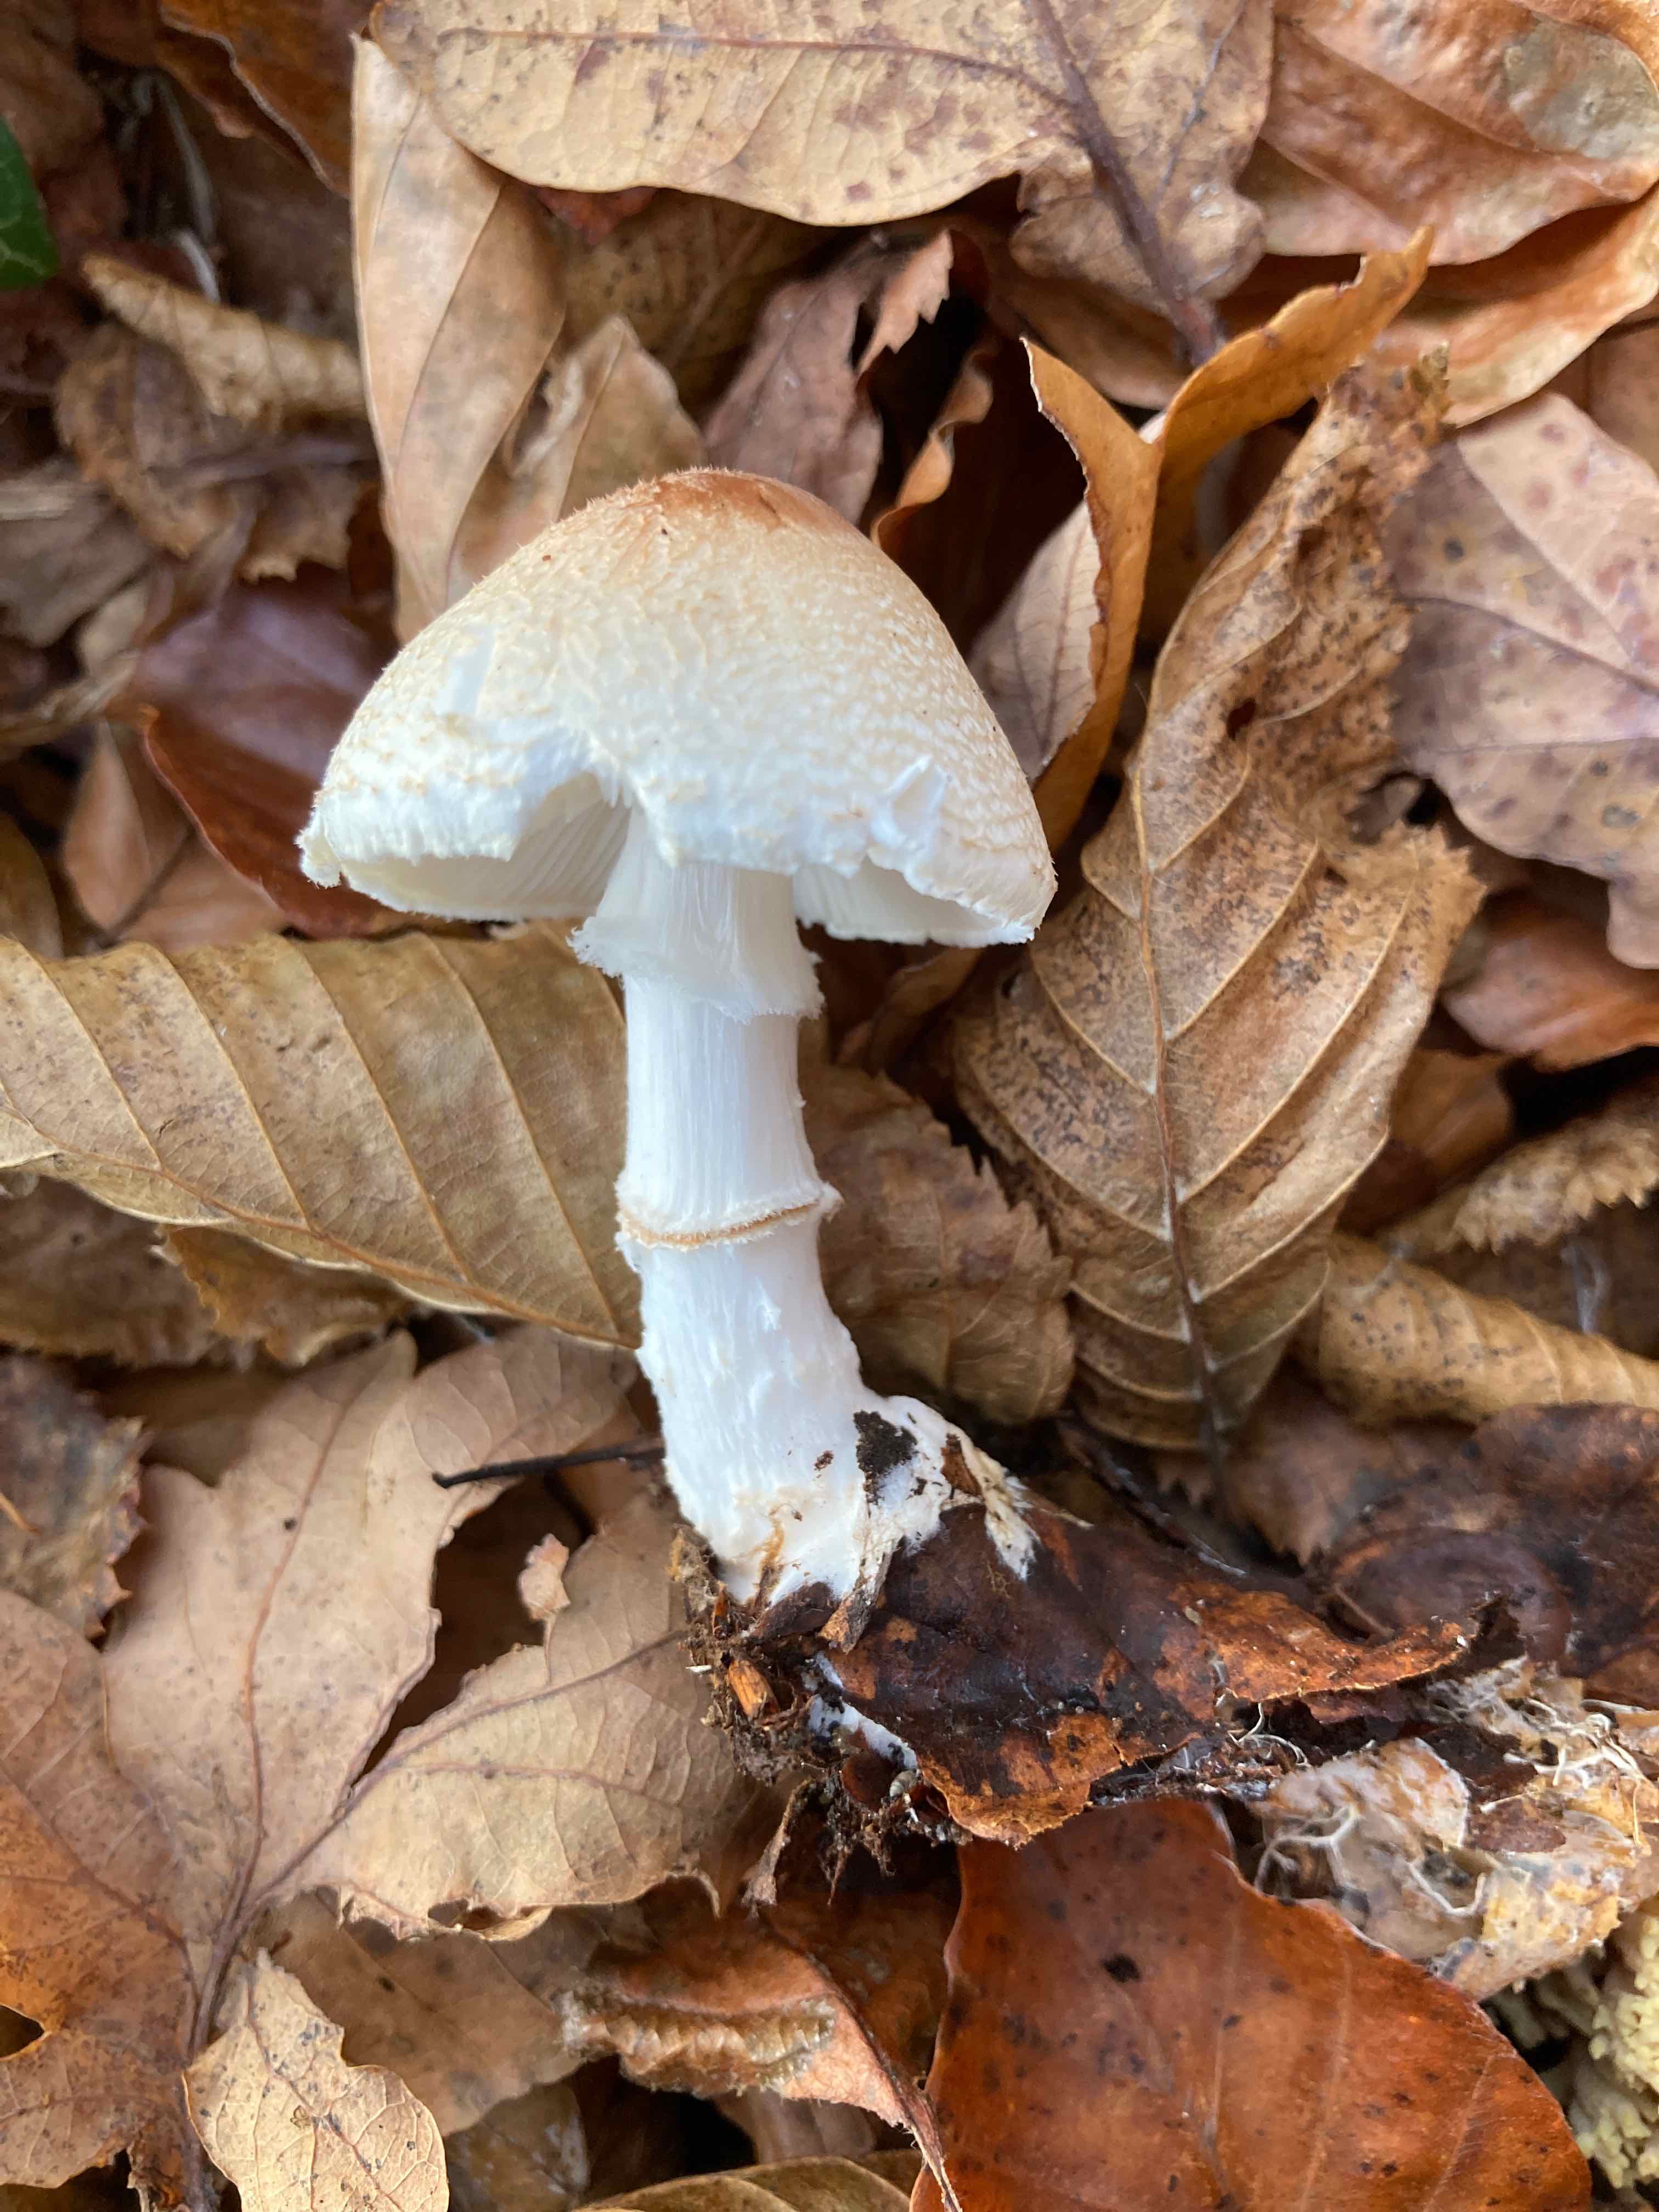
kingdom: Fungi
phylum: Basidiomycota
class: Agaricomycetes
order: Agaricales
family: Agaricaceae
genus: Lepiota
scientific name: Lepiota ignivolvata
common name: orangefodet parasolhat
